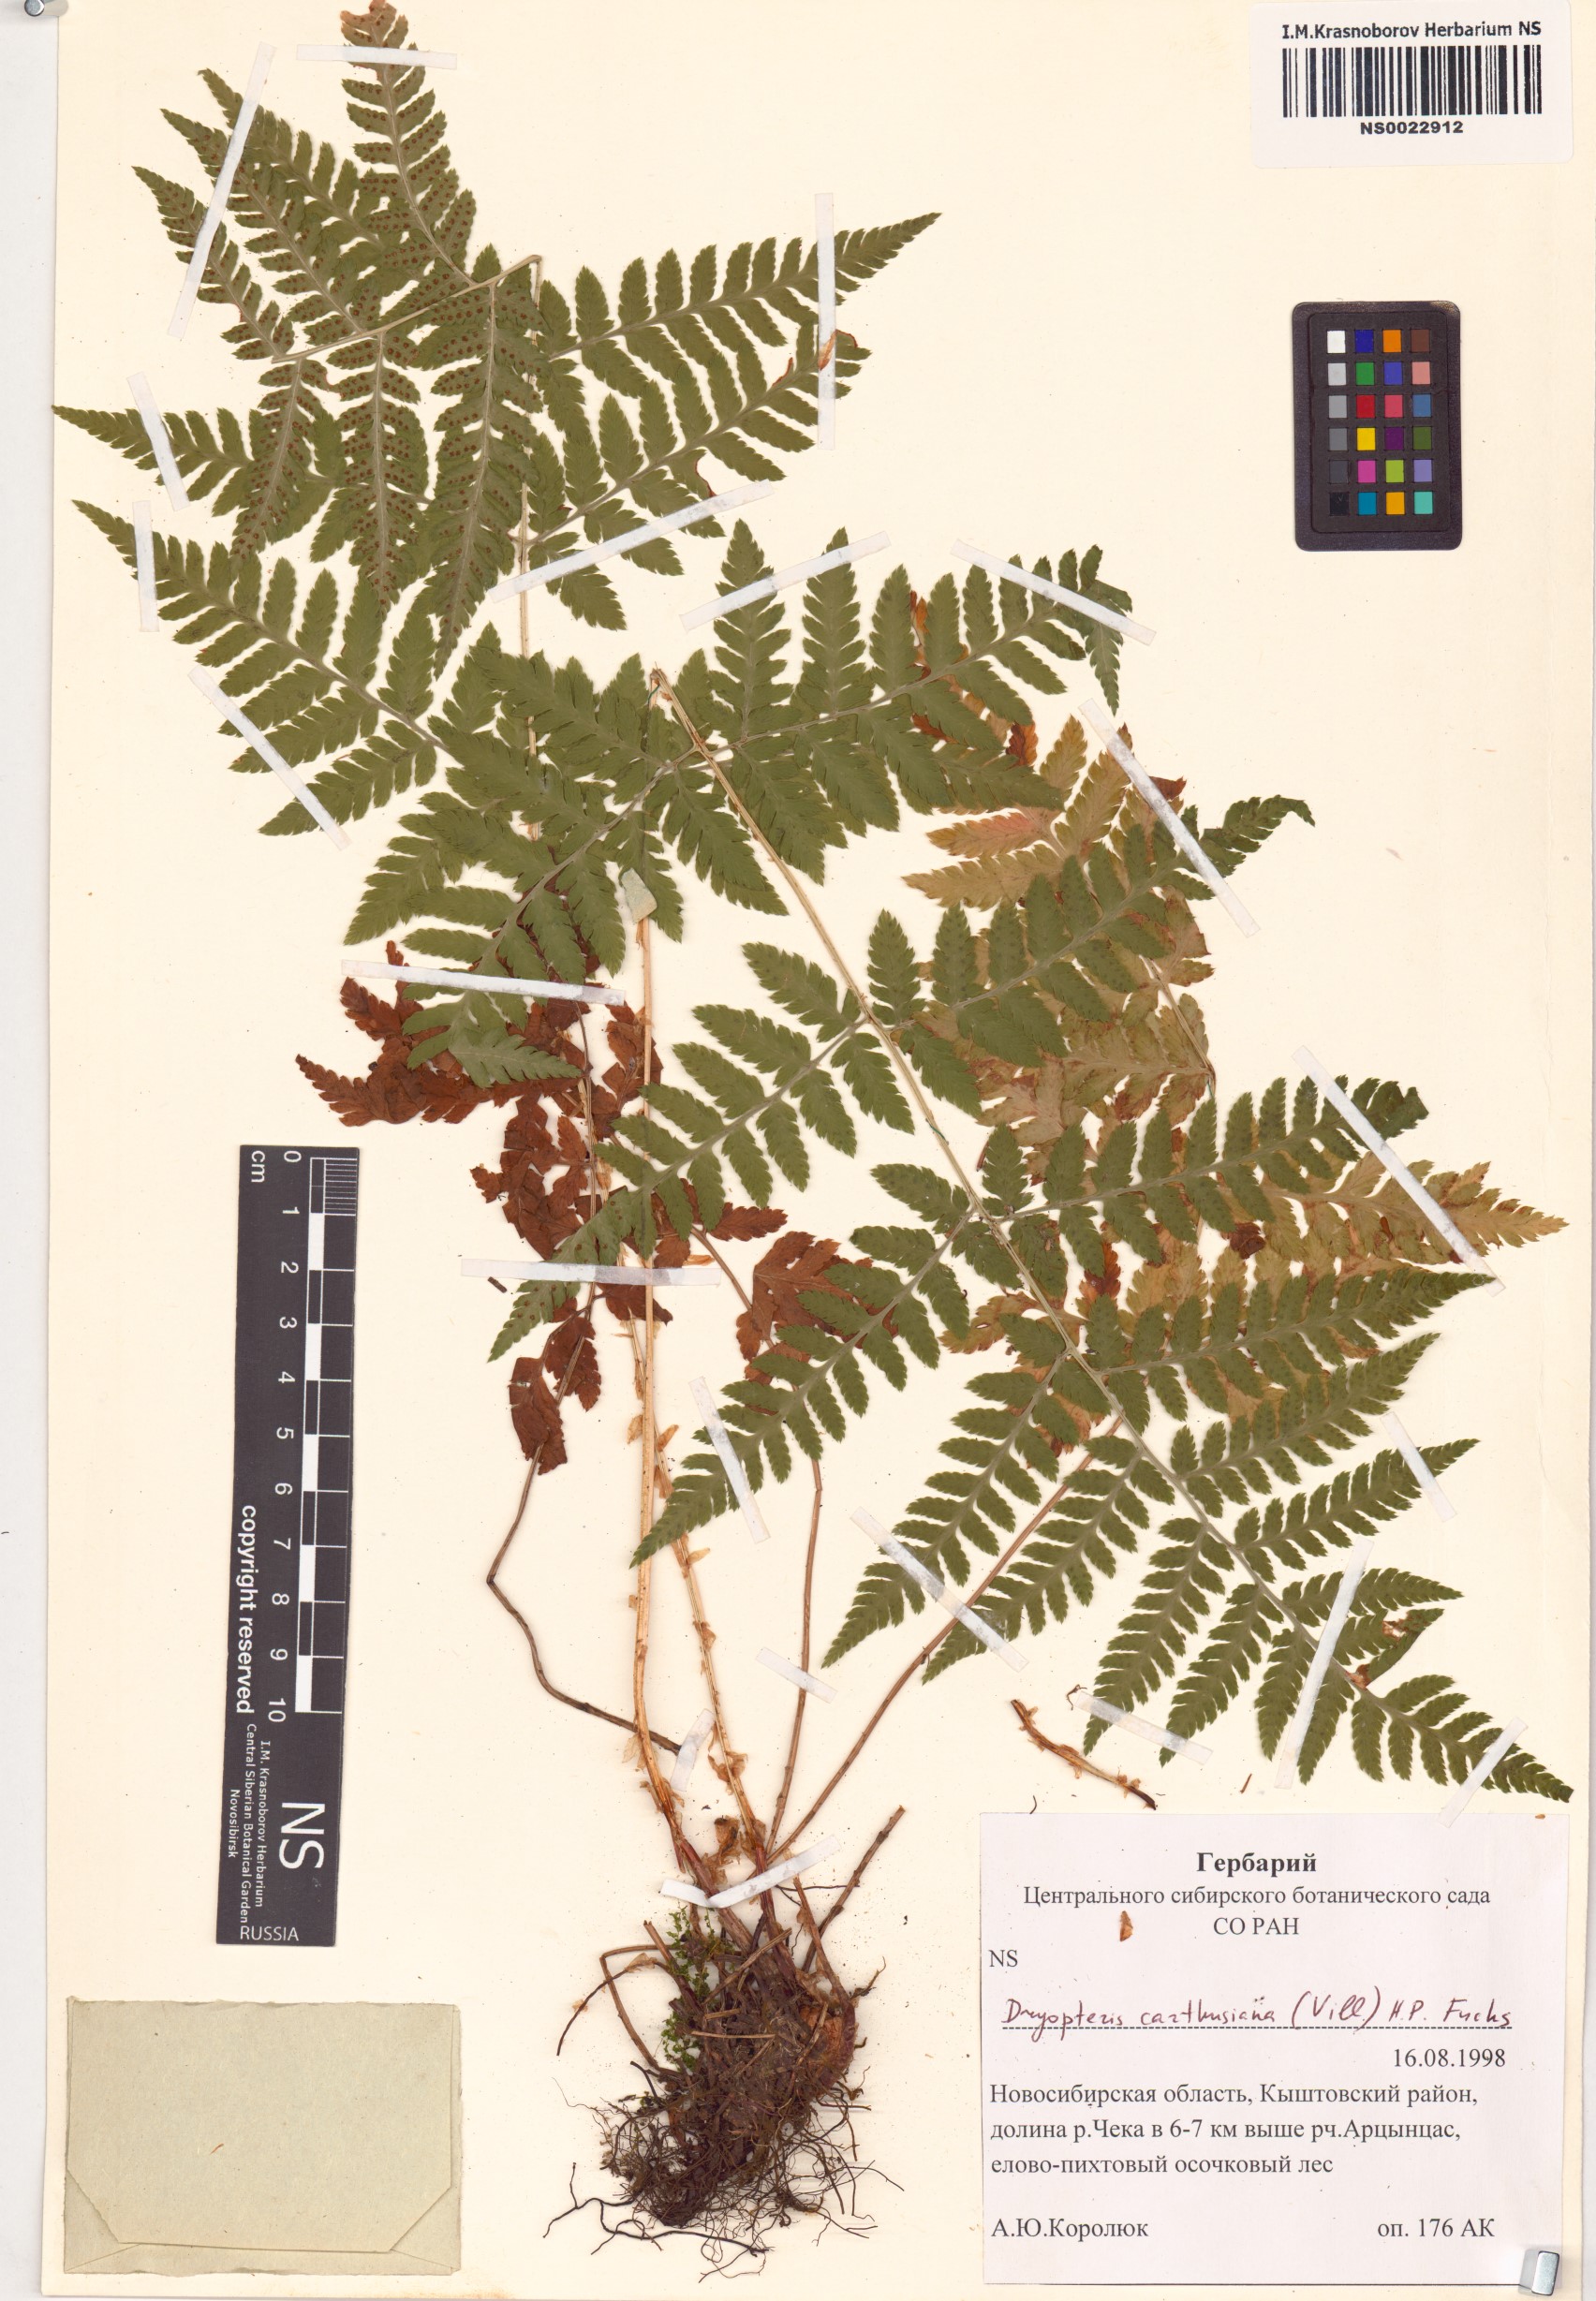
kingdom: Plantae
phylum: Tracheophyta
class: Polypodiopsida
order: Polypodiales
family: Dryopteridaceae
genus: Dryopteris
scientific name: Dryopteris carthusiana
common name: Narrow buckler-fern
